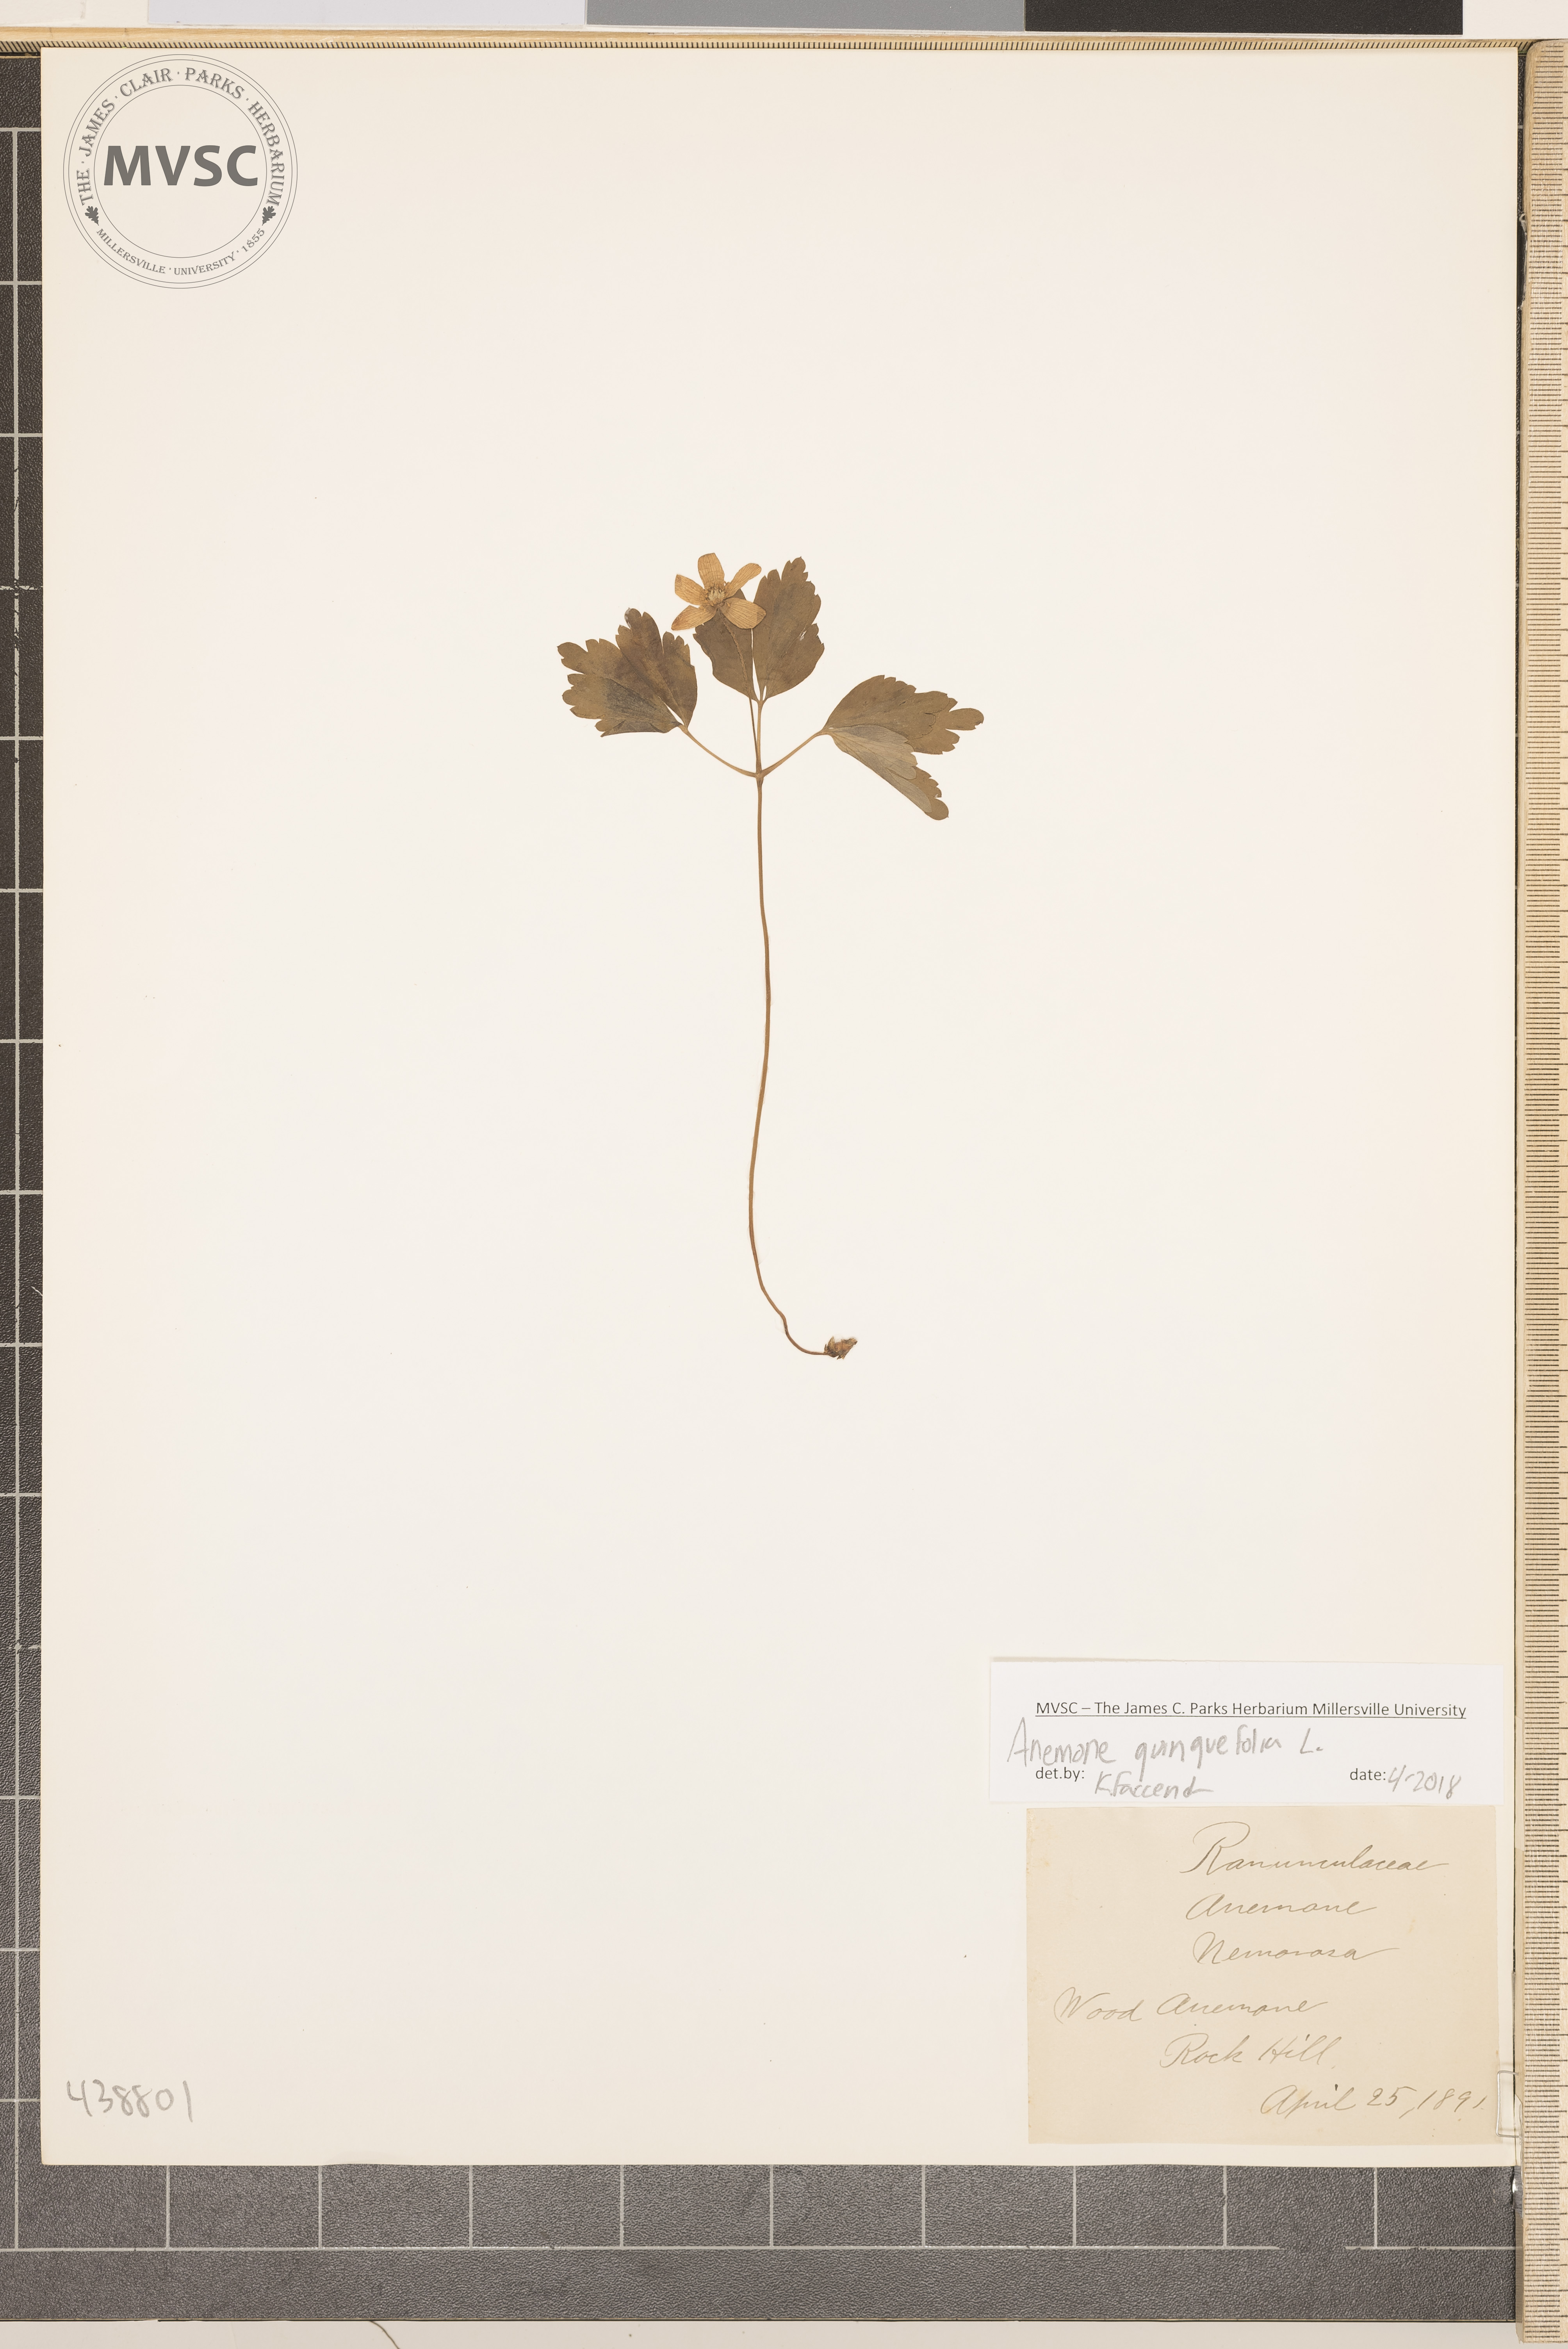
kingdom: Plantae
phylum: Tracheophyta
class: Magnoliopsida
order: Ranunculales
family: Ranunculaceae
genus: Anemone
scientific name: Anemone quinquefolia
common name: Wood anemone
